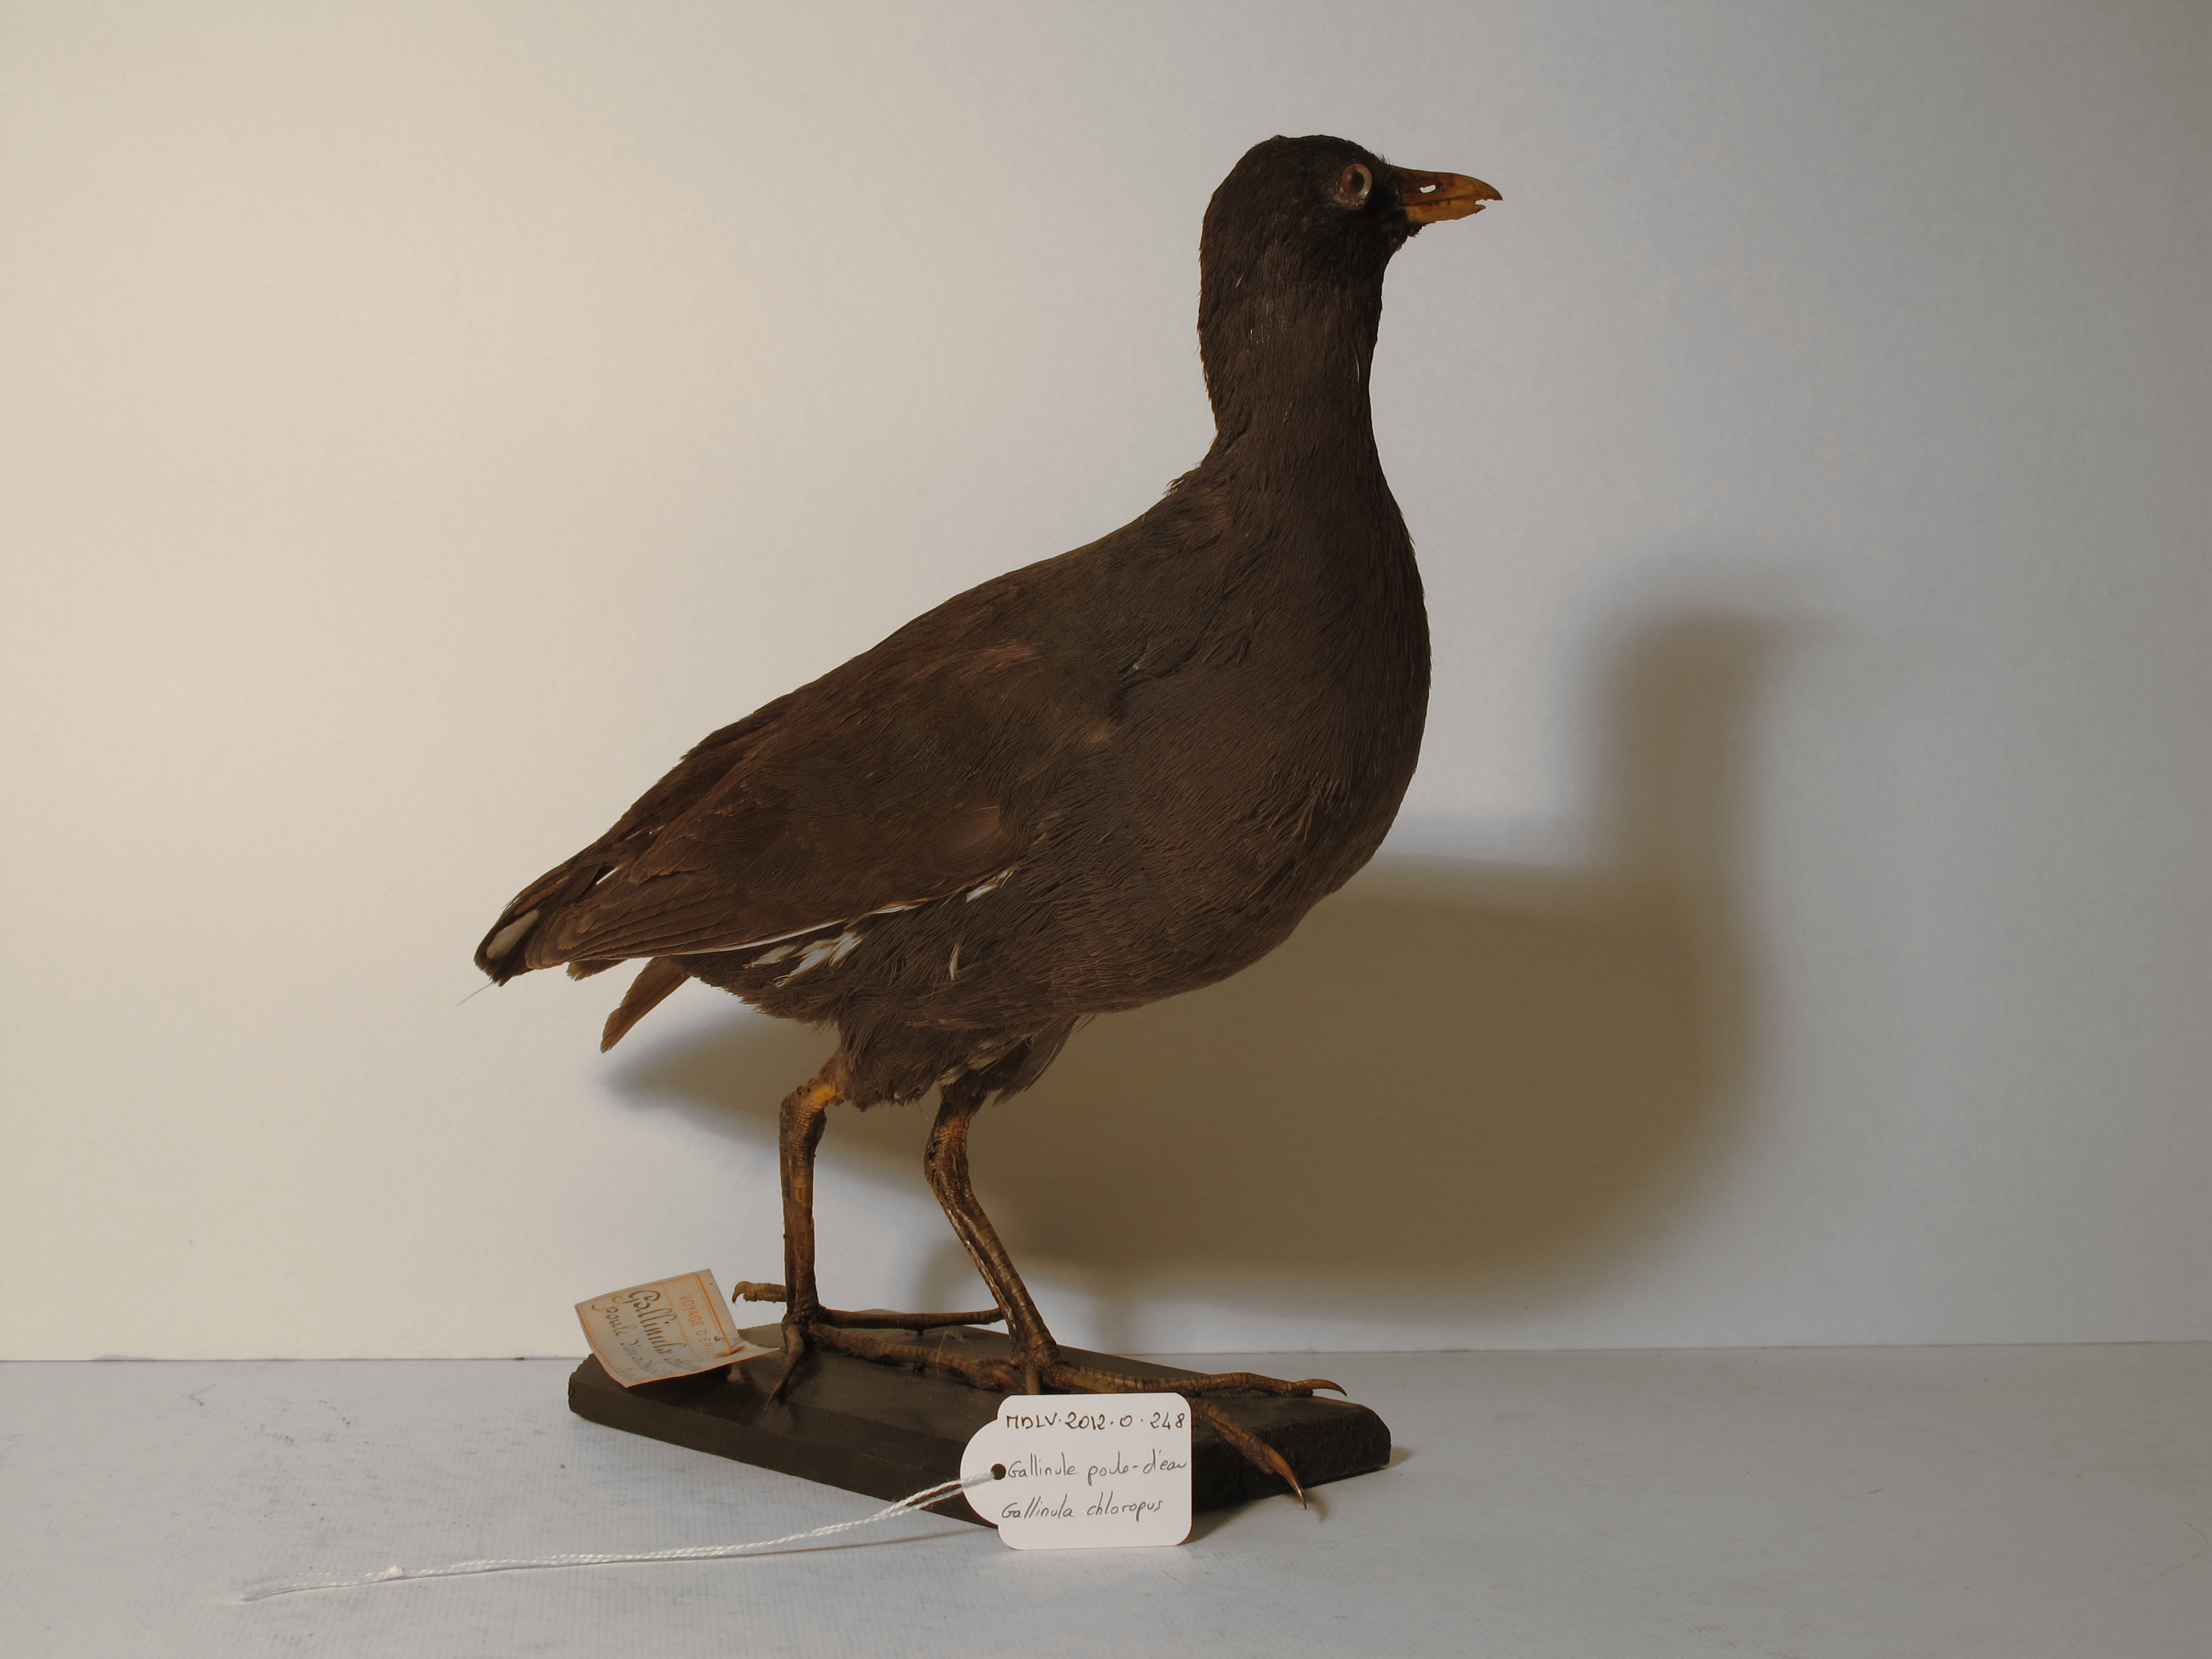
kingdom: Animalia
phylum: Chordata
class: Aves
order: Gruiformes
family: Rallidae
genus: Gallinula
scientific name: Gallinula chloropus
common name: Common Moorhen
